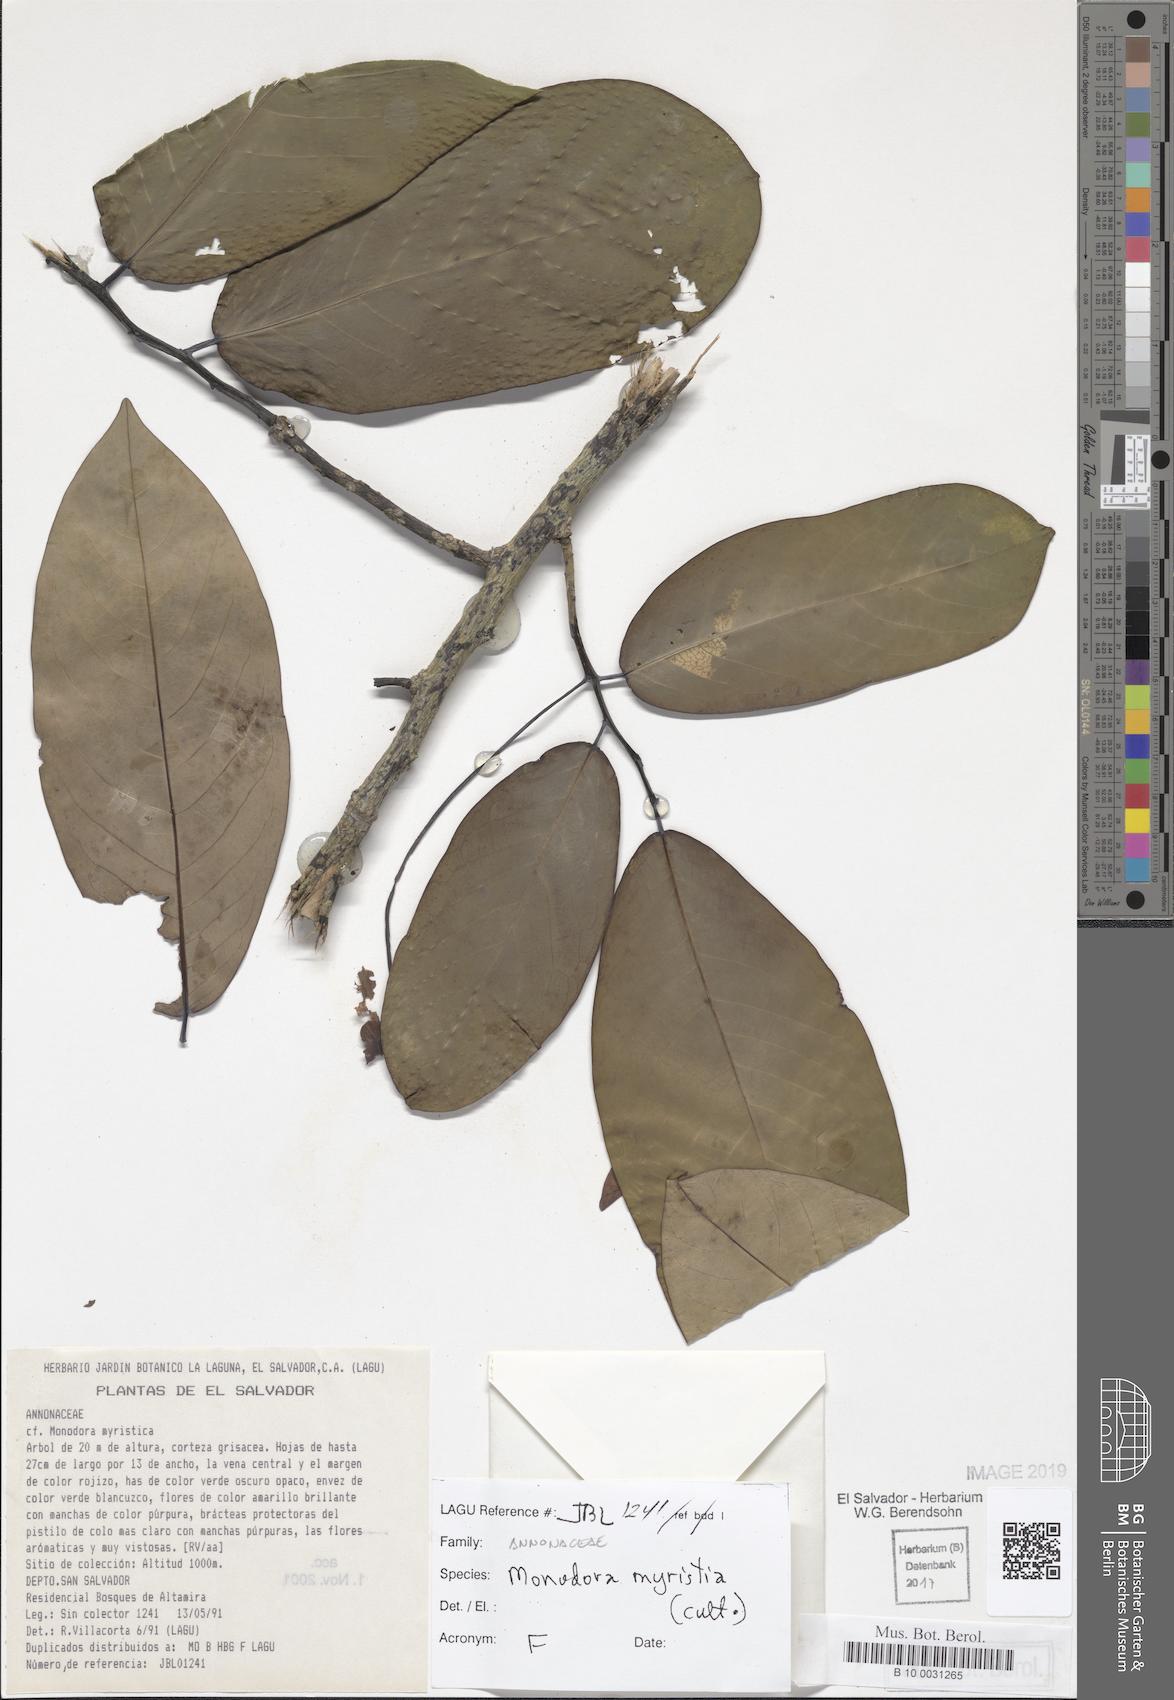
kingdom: Plantae
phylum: Tracheophyta
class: Magnoliopsida
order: Magnoliales
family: Annonaceae
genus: Monodora
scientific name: Monodora myristica
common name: African nutmeg
